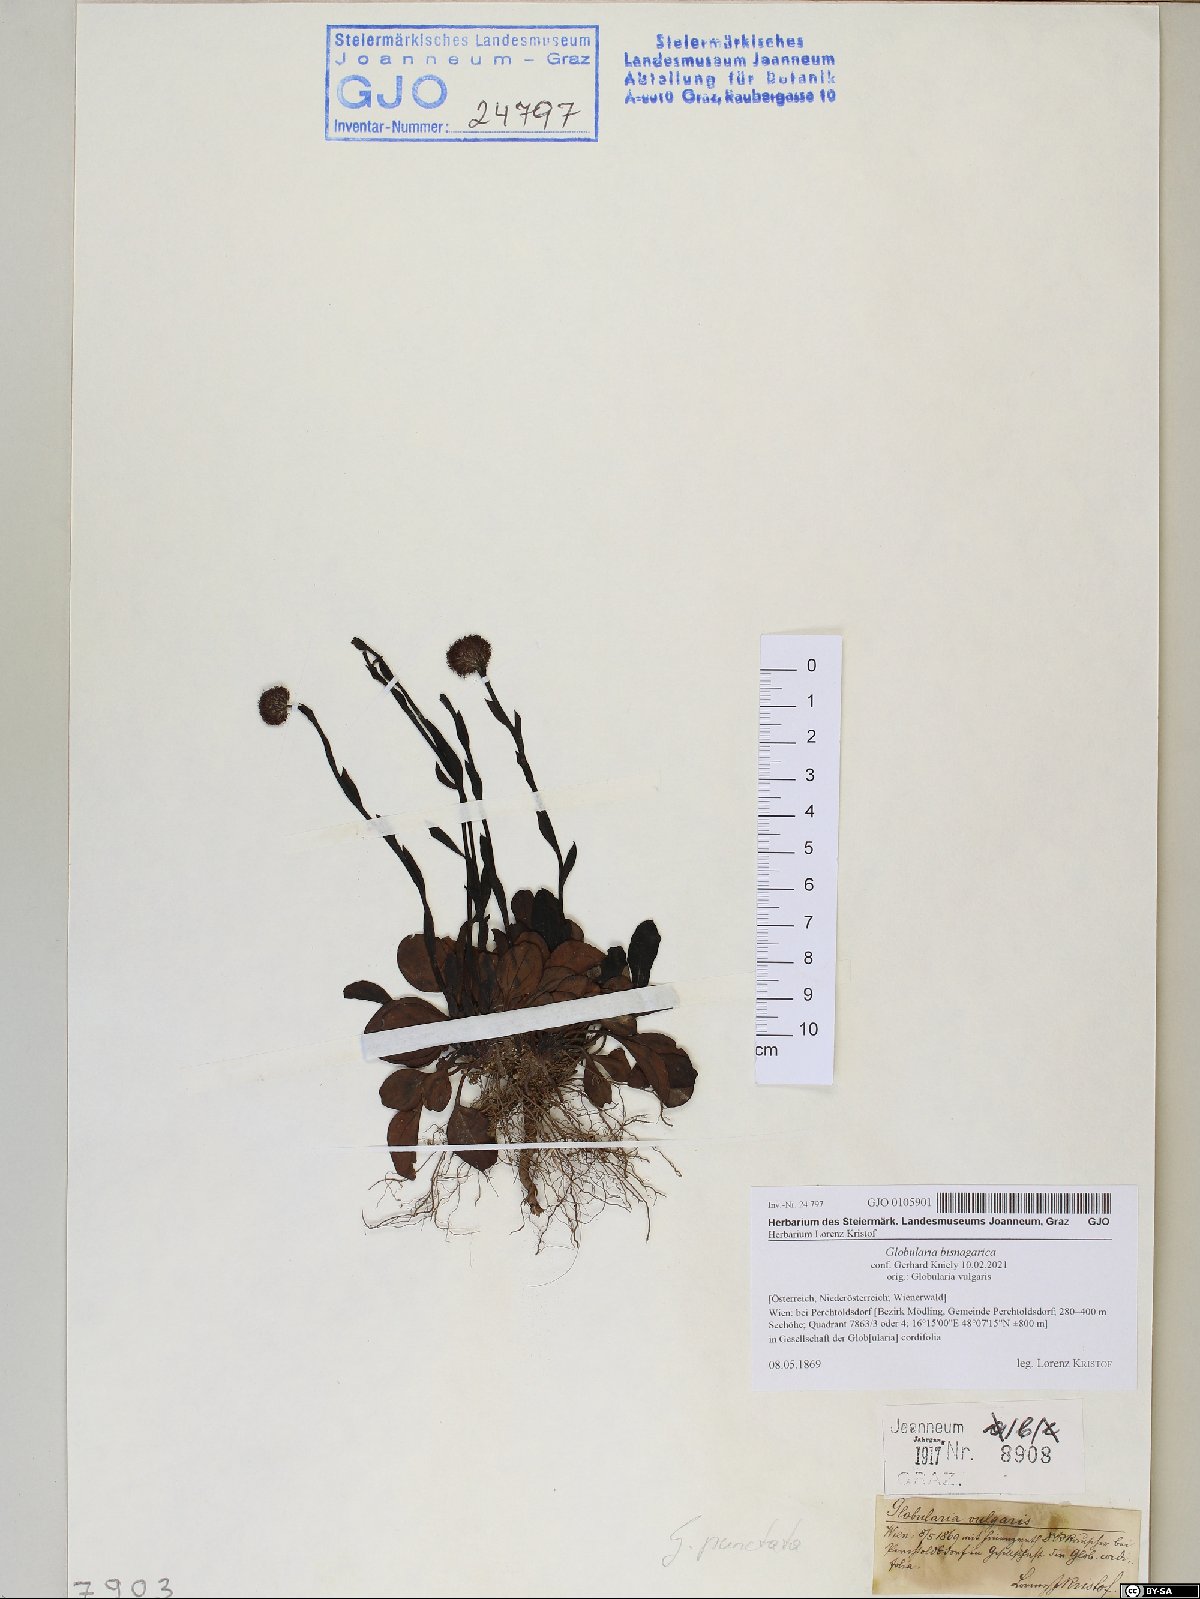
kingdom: Plantae
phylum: Tracheophyta
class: Magnoliopsida
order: Lamiales
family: Plantaginaceae
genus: Globularia
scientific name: Globularia bisnagarica
